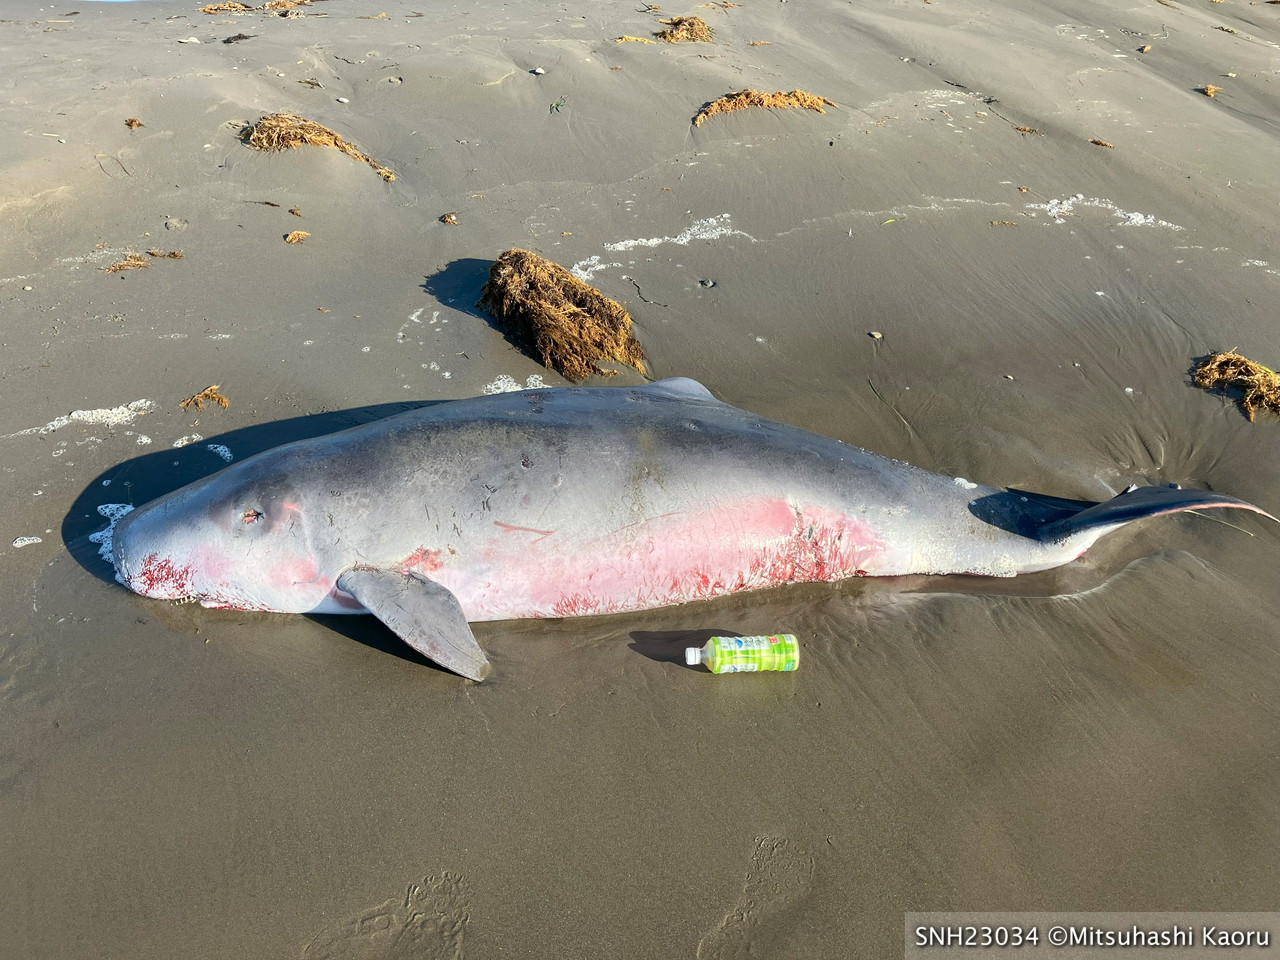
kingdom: Animalia
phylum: Chordata
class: Mammalia
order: Cetacea
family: Kogiidae
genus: Kogia
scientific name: Kogia breviceps
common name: Pygmy sperm whale
